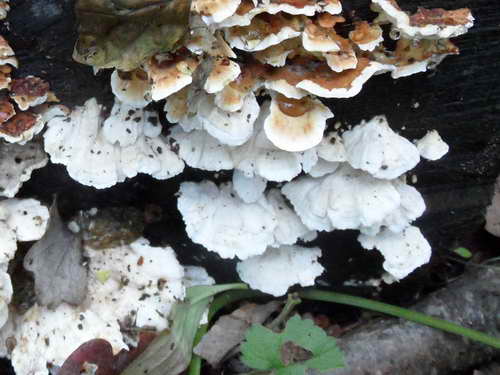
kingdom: Fungi
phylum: Basidiomycota
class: Agaricomycetes
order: Polyporales
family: Dacryobolaceae
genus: Oligoporus
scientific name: Oligoporus wakefieldiae
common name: række-kødporesvamp
